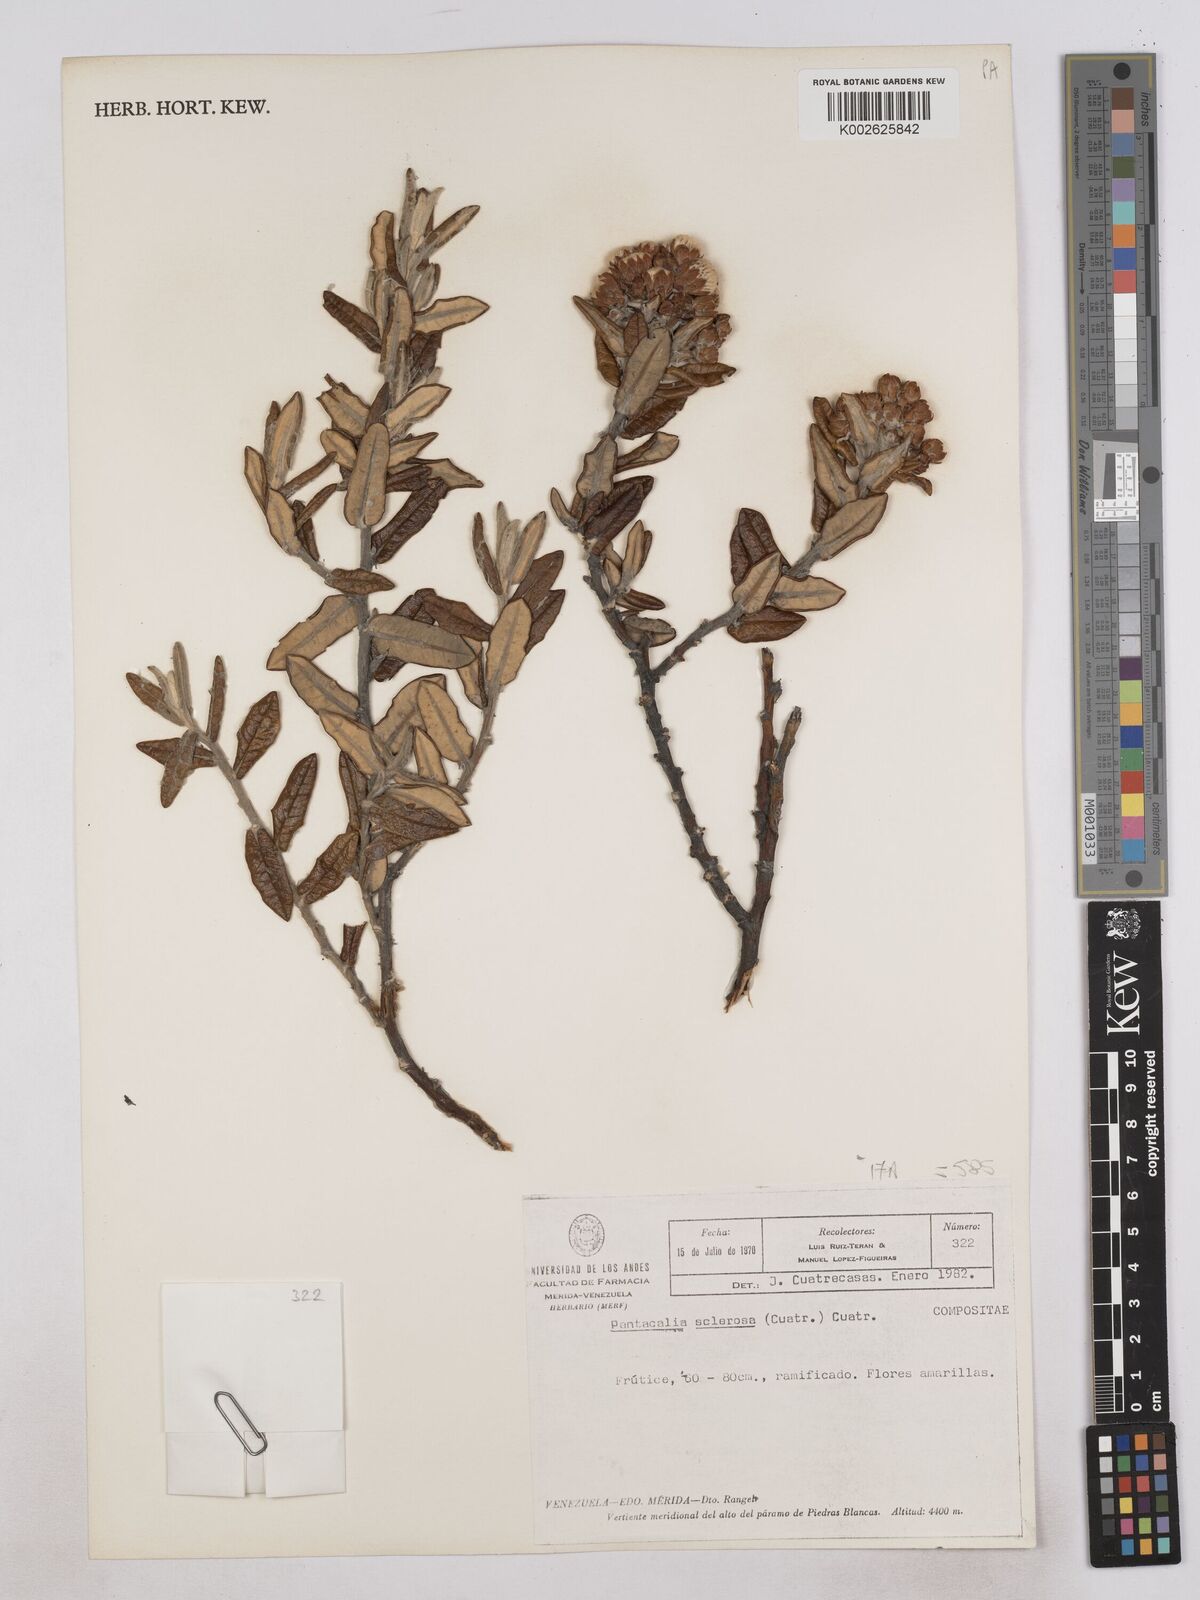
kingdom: Plantae
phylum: Tracheophyta
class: Magnoliopsida
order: Asterales
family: Asteraceae
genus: Monticalia
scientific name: Monticalia sclerosa
